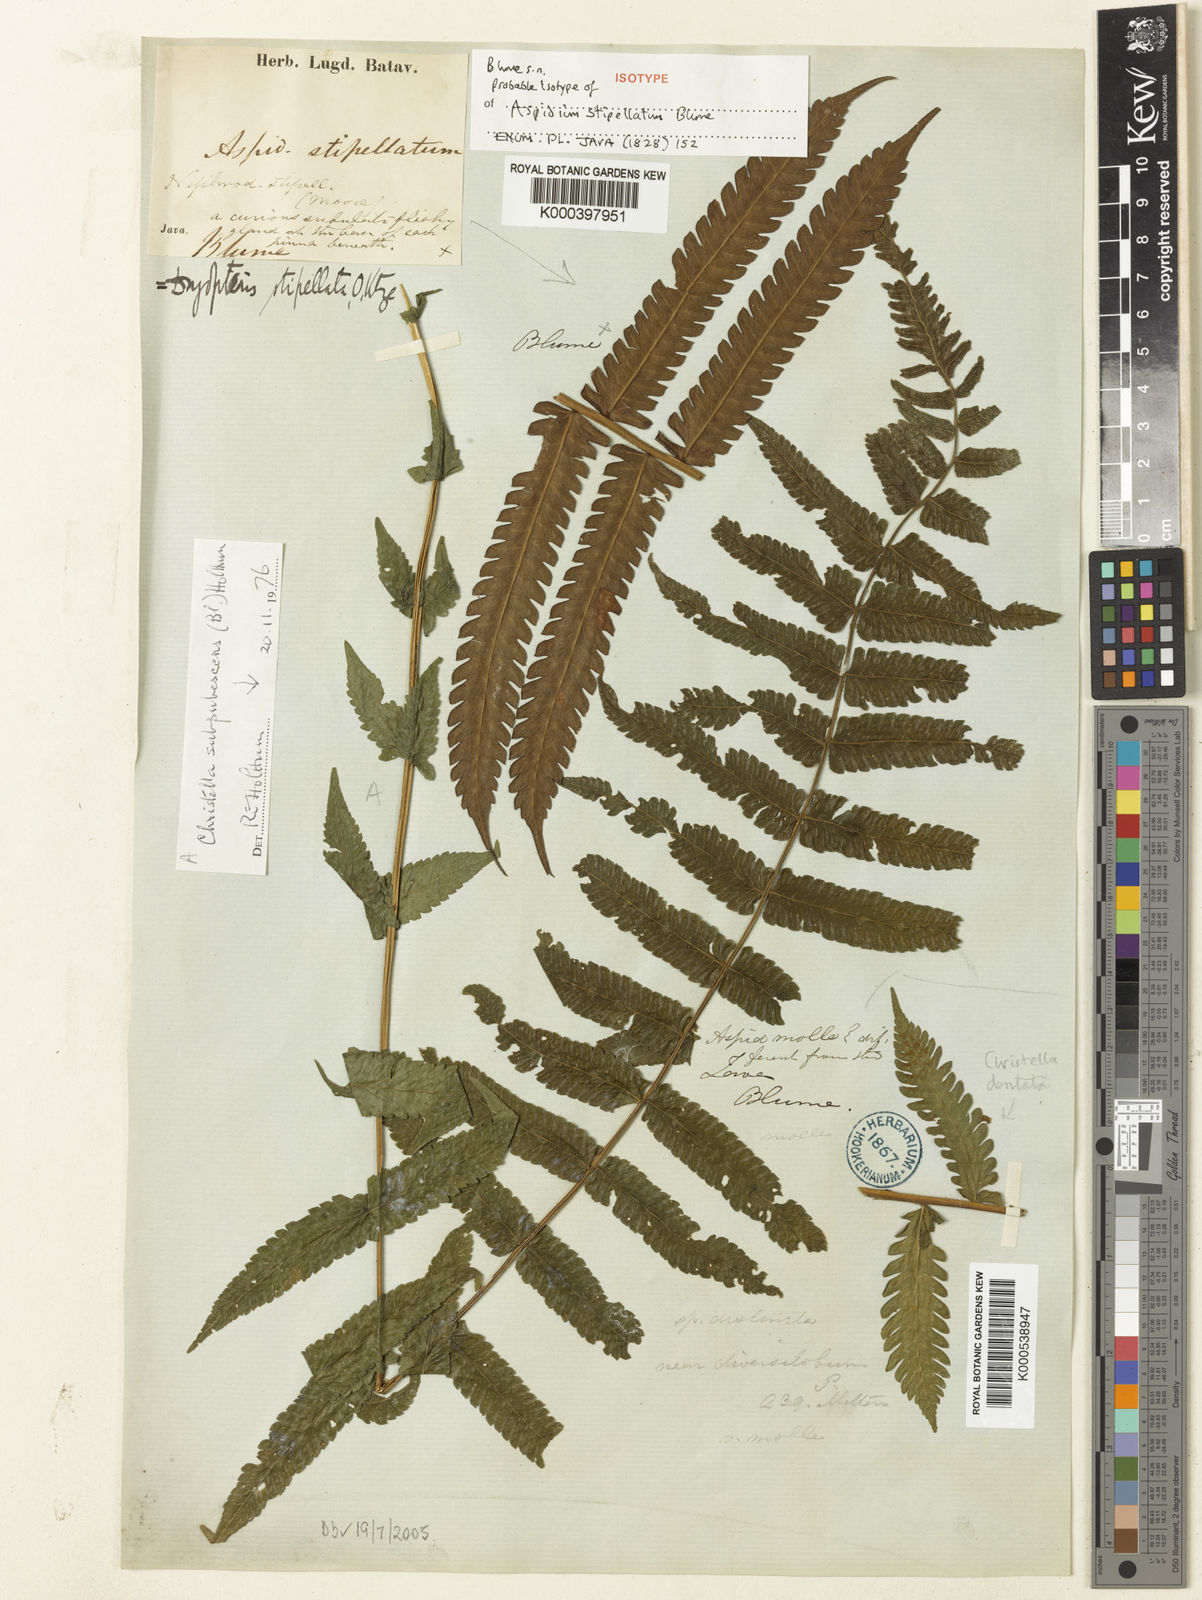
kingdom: Plantae
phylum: Tracheophyta
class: Polypodiopsida
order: Polypodiales
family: Thelypteridaceae
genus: Sphaerostephanos
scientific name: Sphaerostephanos stipellatus
